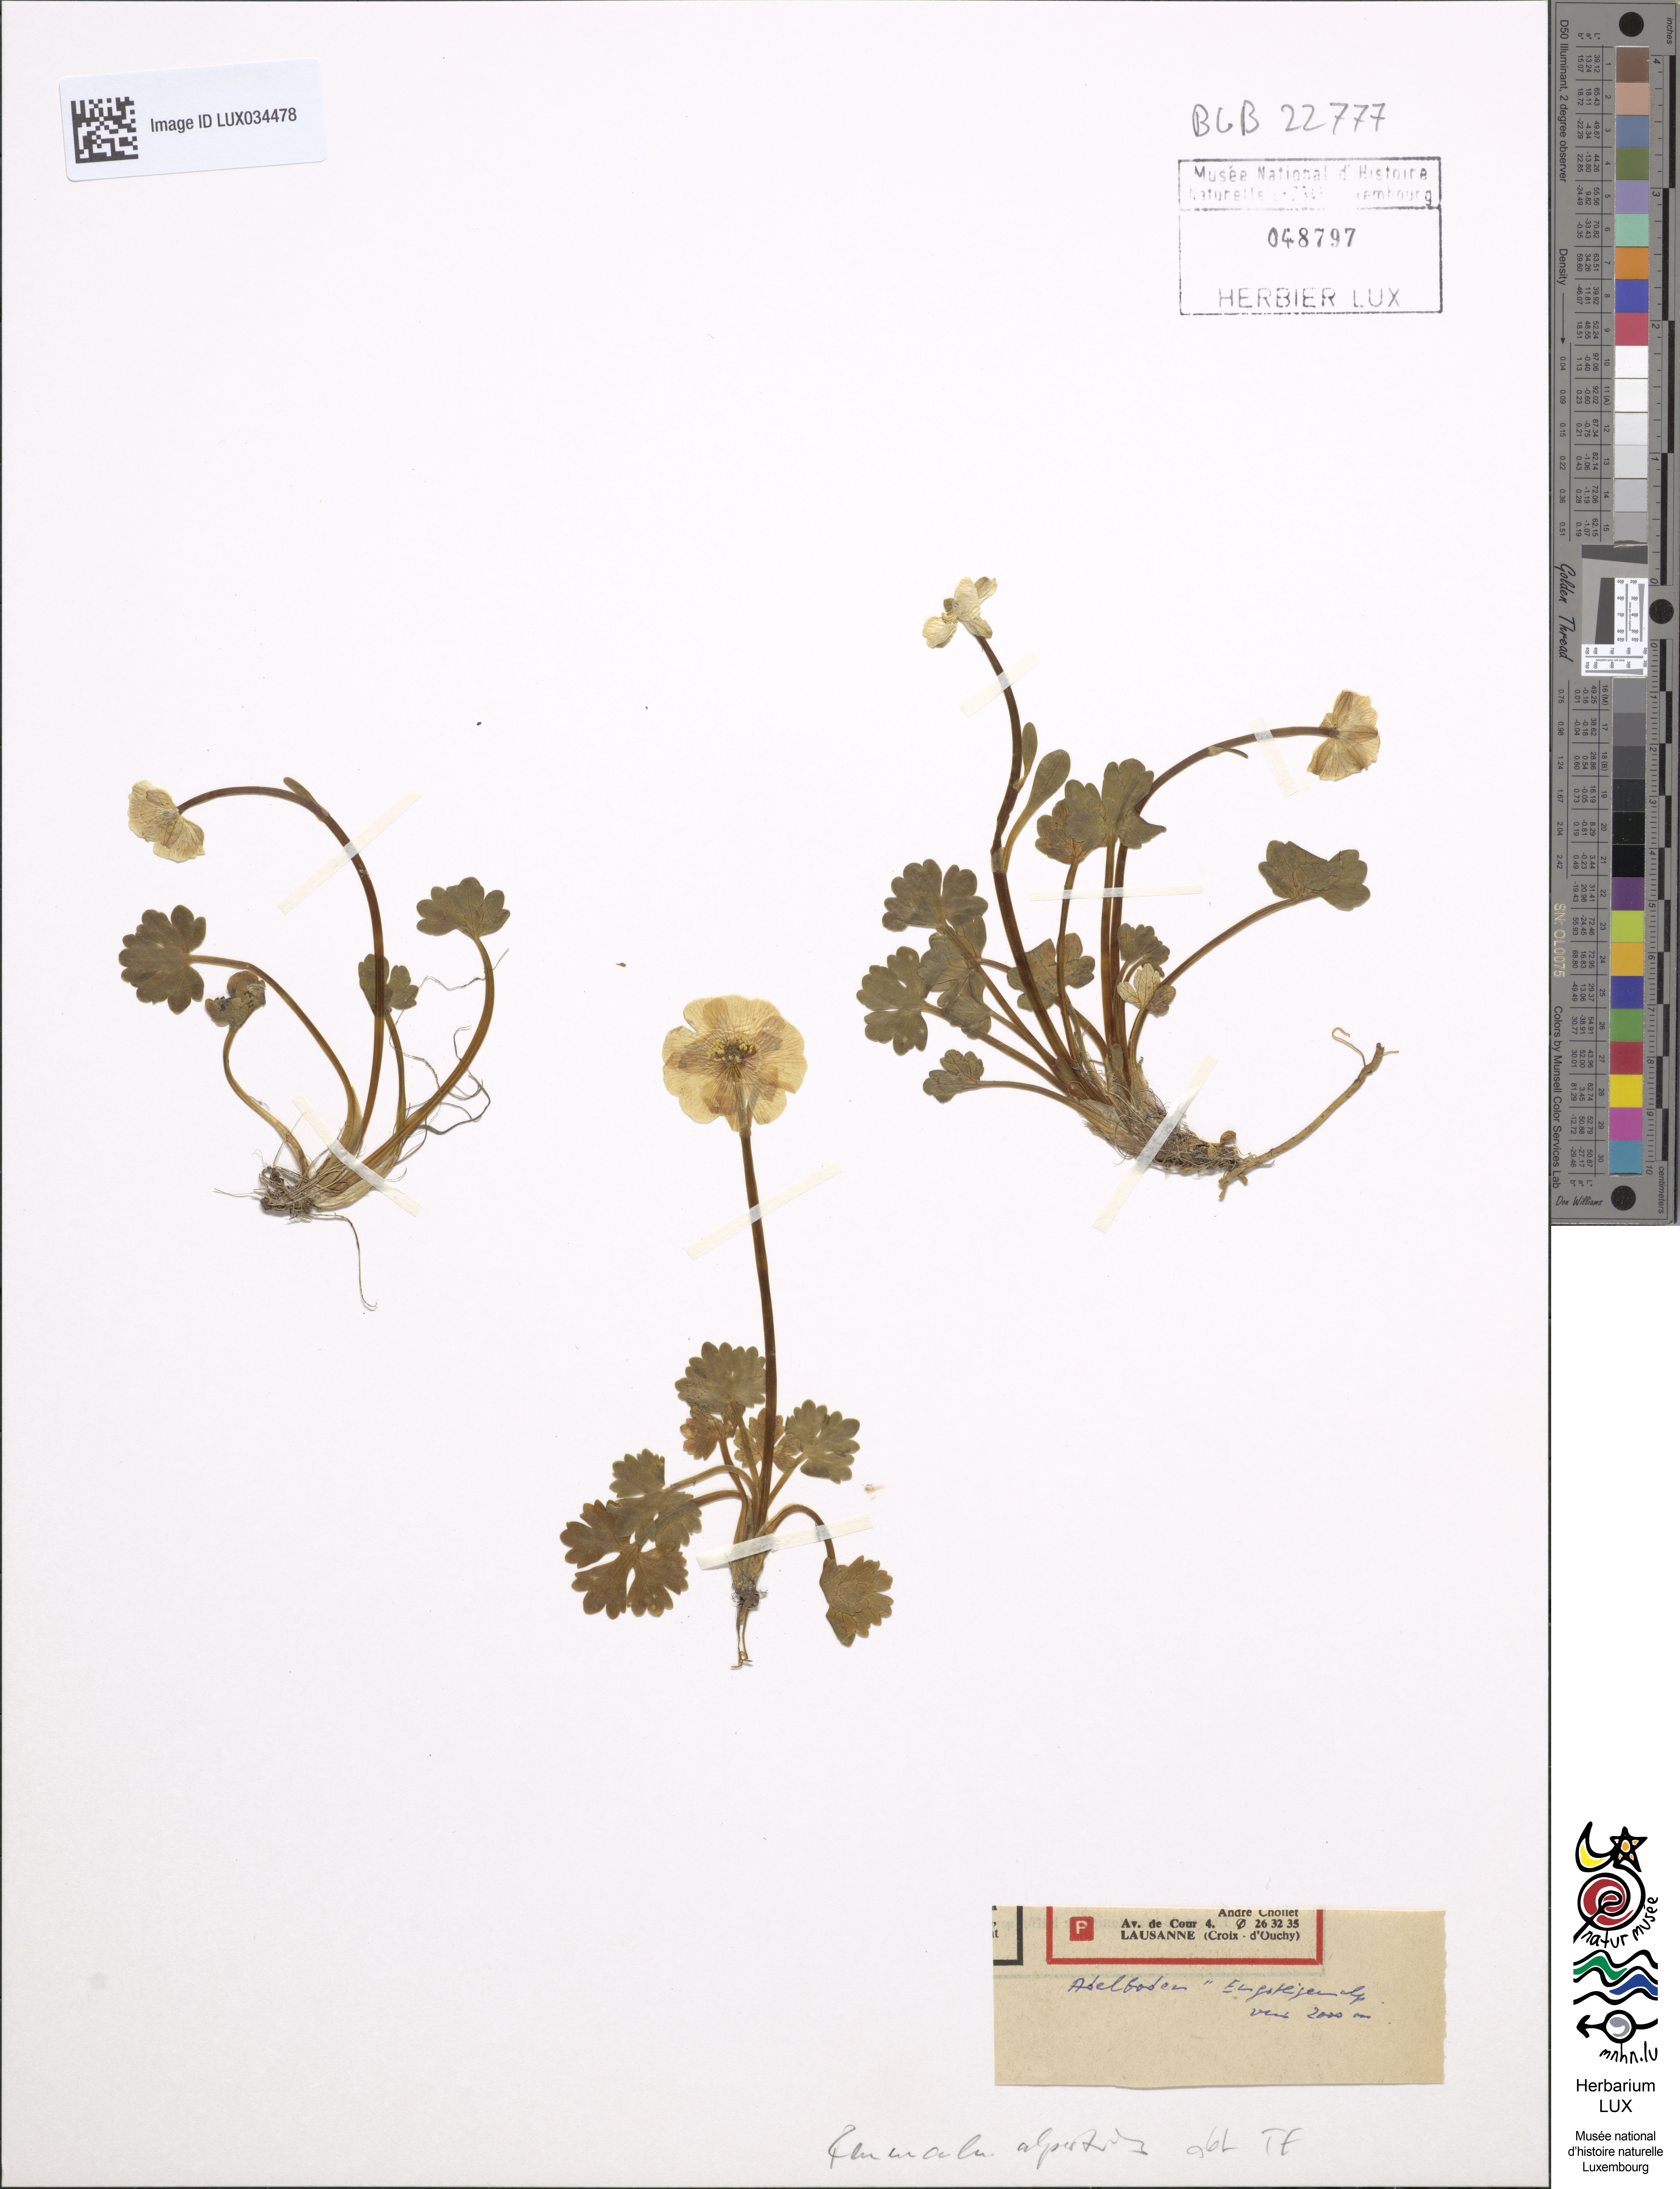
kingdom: Plantae
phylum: Tracheophyta
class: Magnoliopsida
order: Ranunculales
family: Ranunculaceae
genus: Ranunculus
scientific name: Ranunculus alpestris
